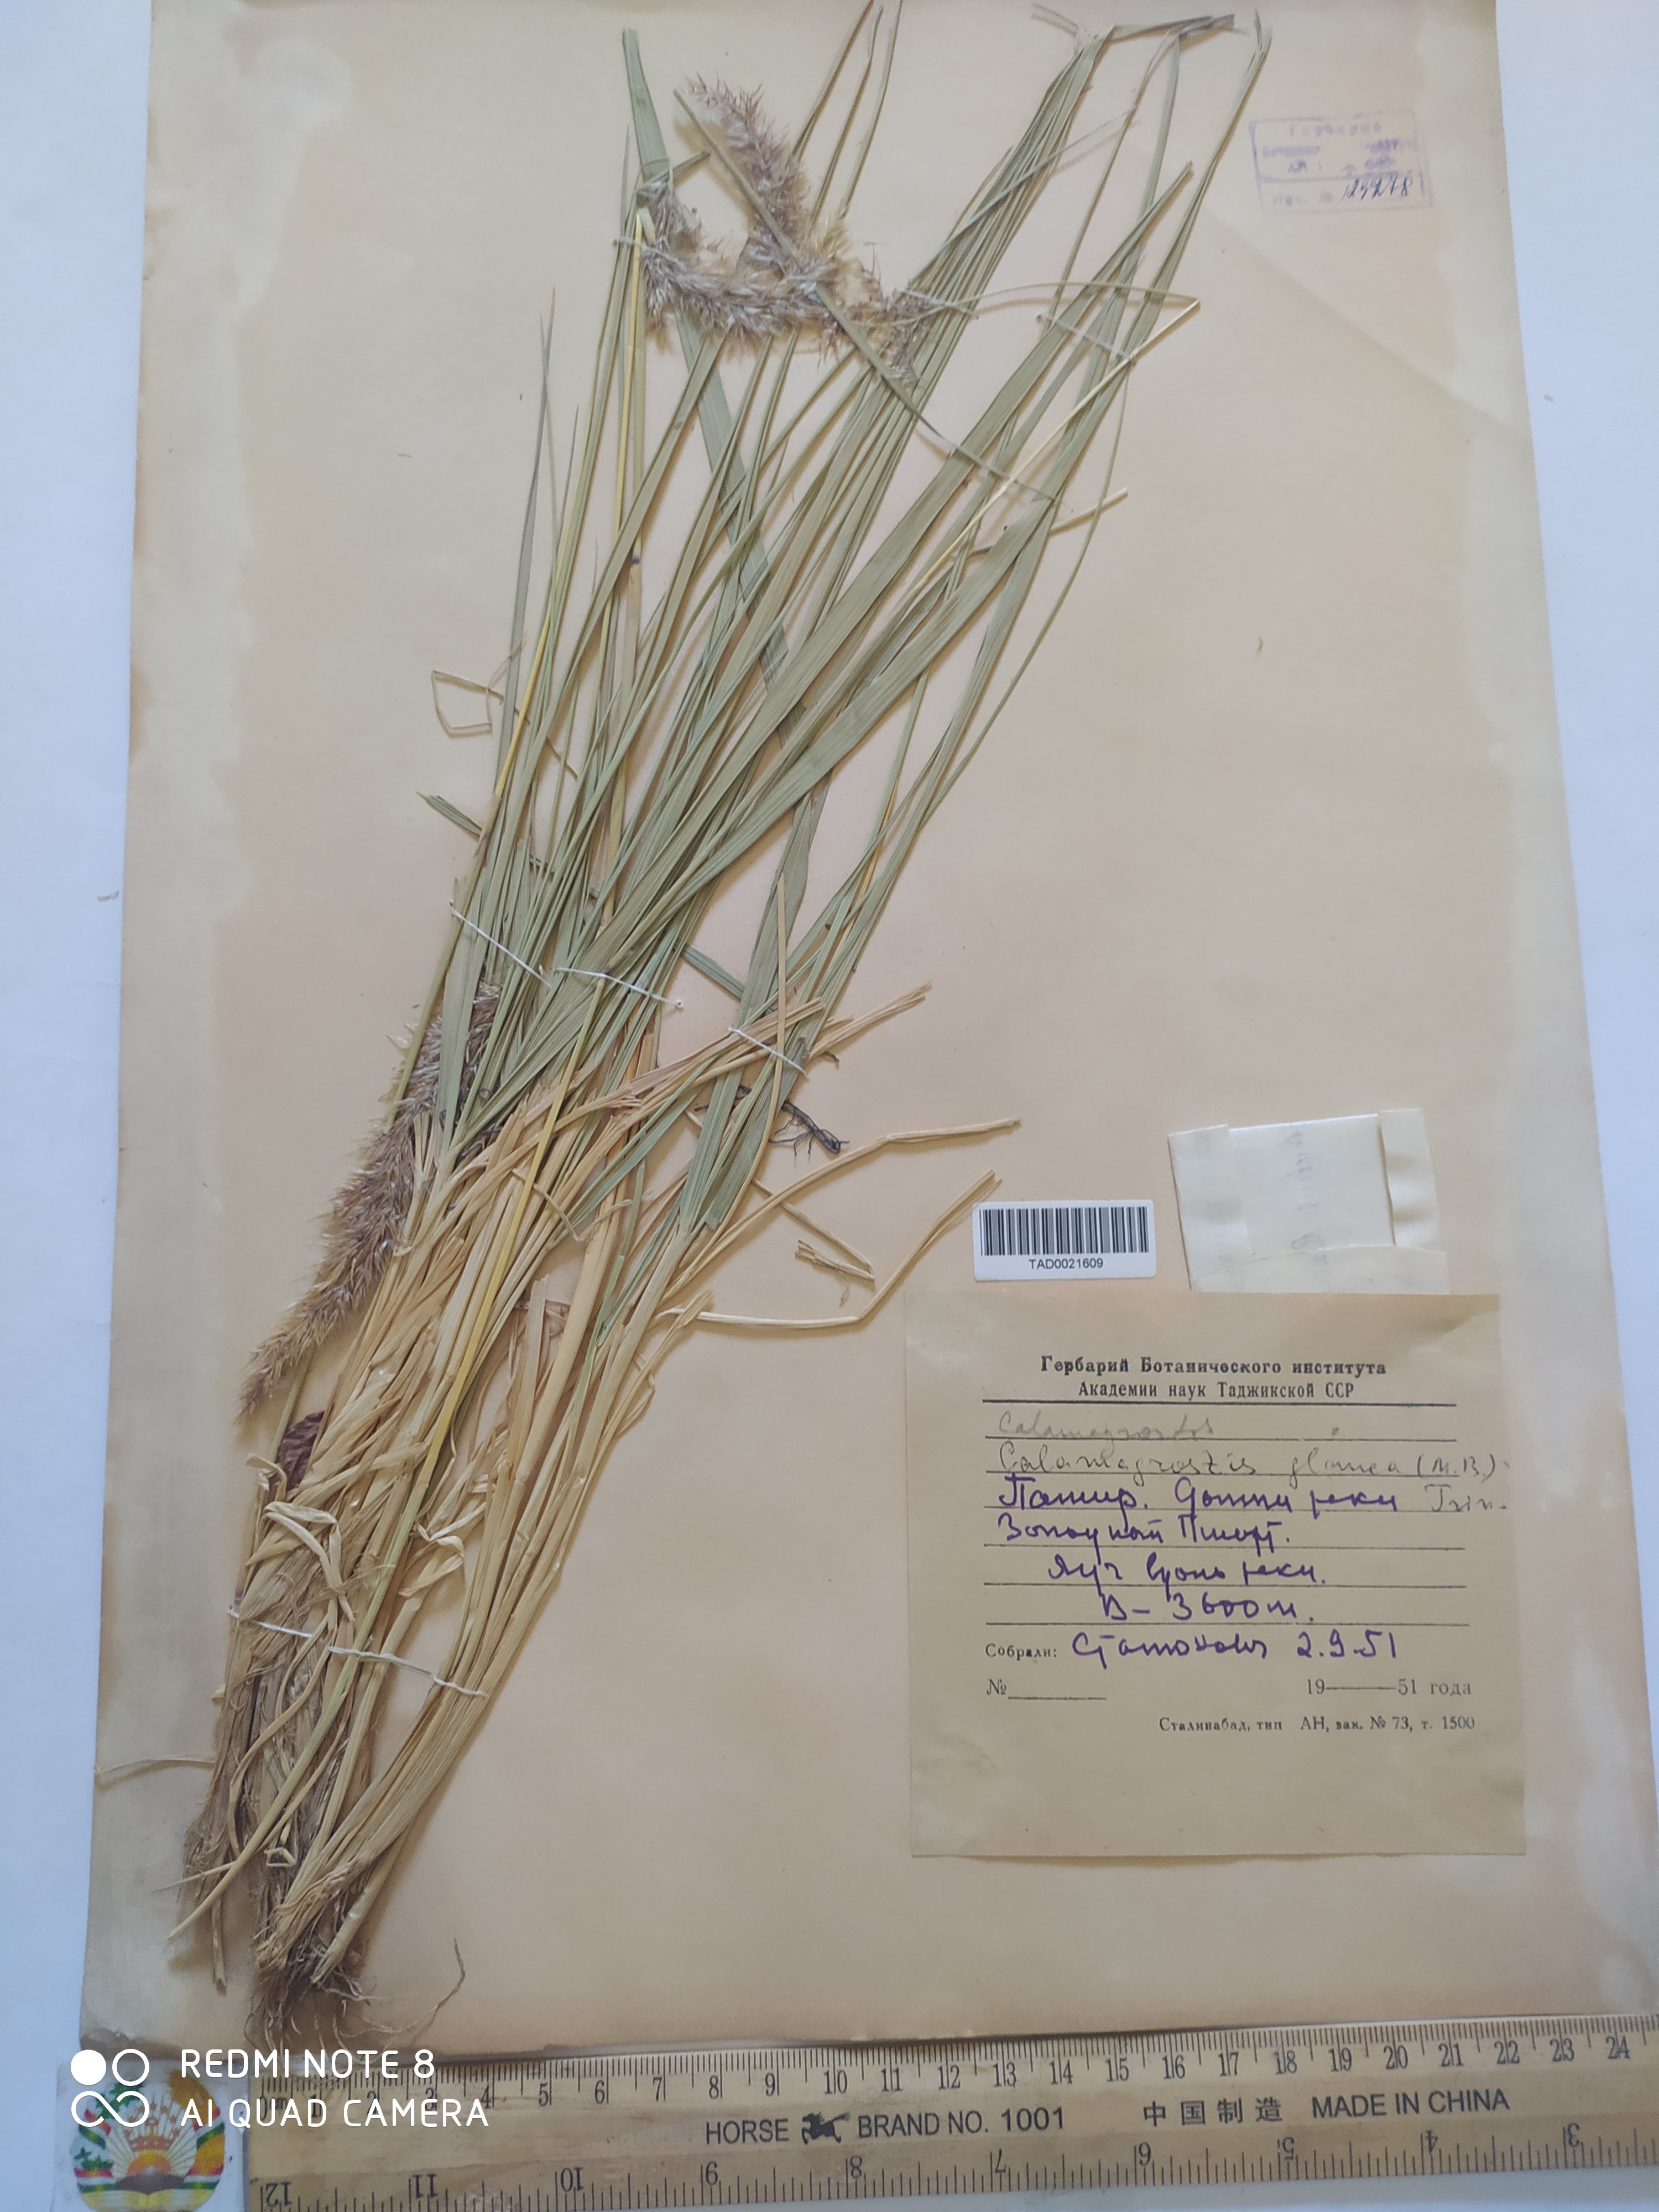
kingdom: Plantae
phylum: Tracheophyta
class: Liliopsida
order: Poales
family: Poaceae
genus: Calamagrostis
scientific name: Calamagrostis pseudophragmites
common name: Coastal small-reed
